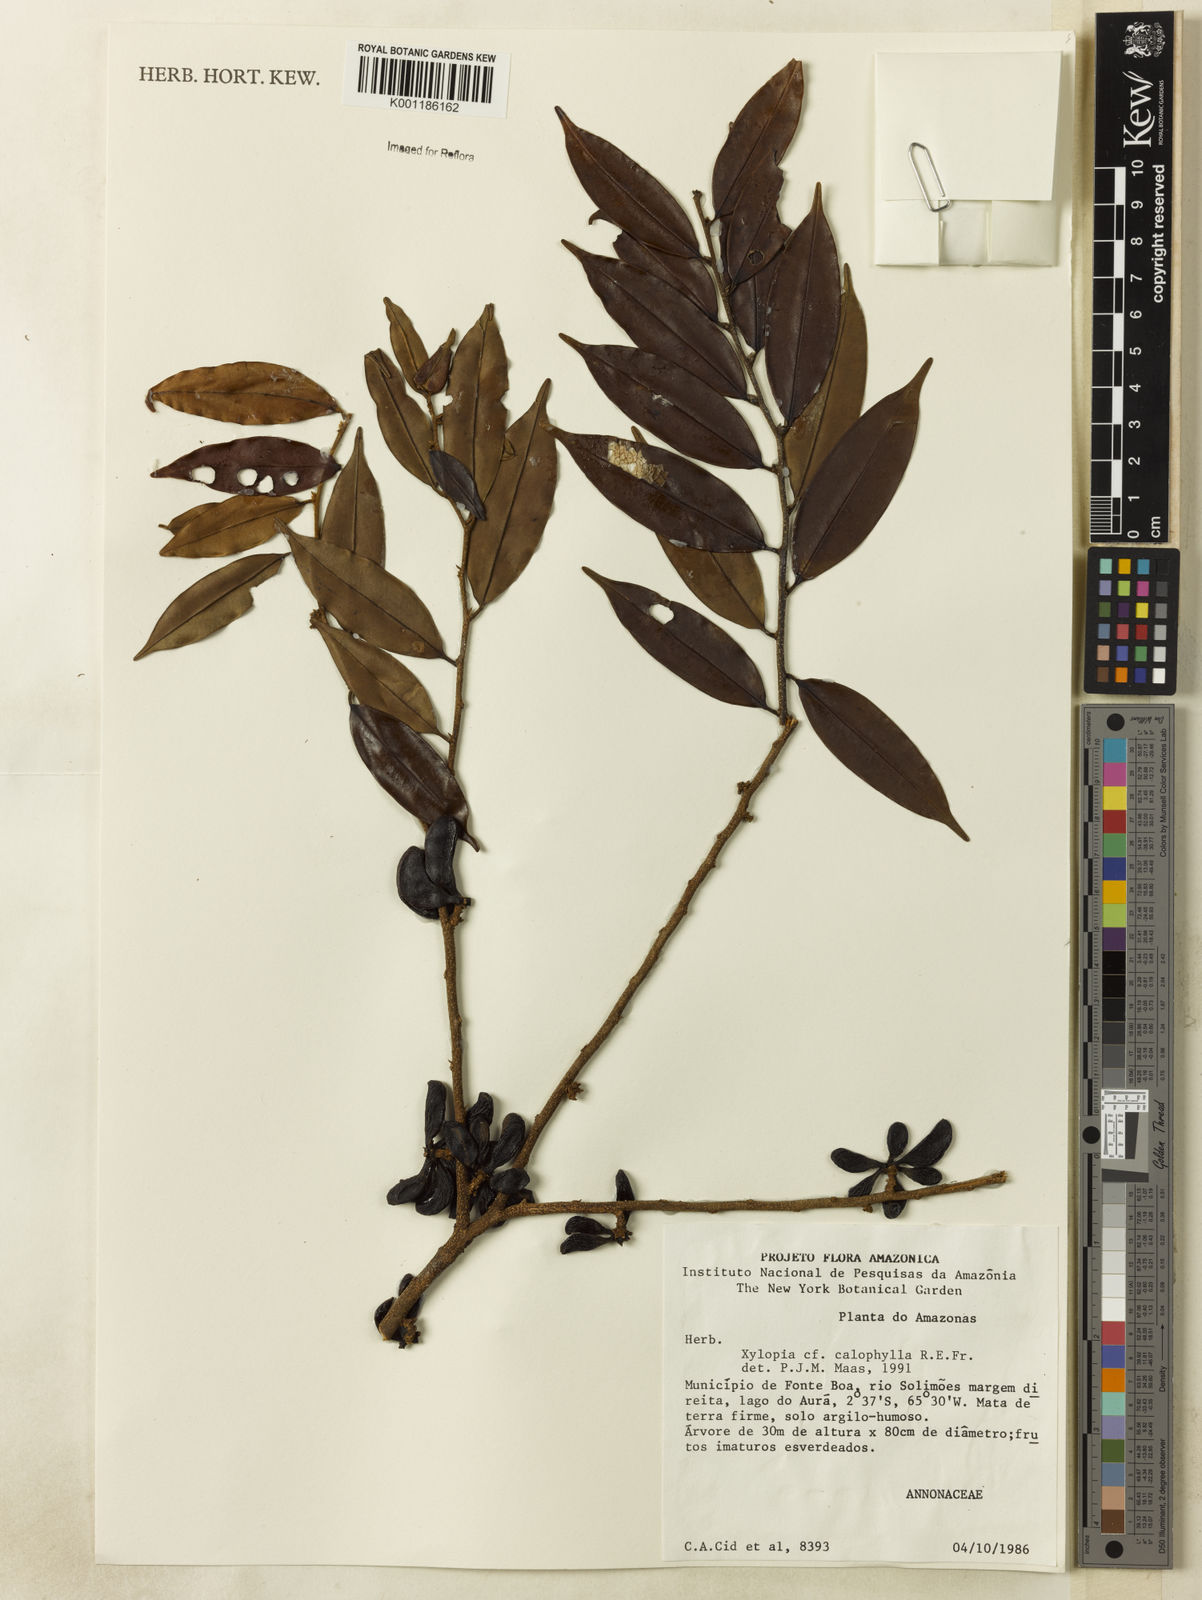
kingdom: Plantae
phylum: Tracheophyta
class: Magnoliopsida
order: Magnoliales
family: Annonaceae
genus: Xylopia
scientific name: Xylopia calophylla
